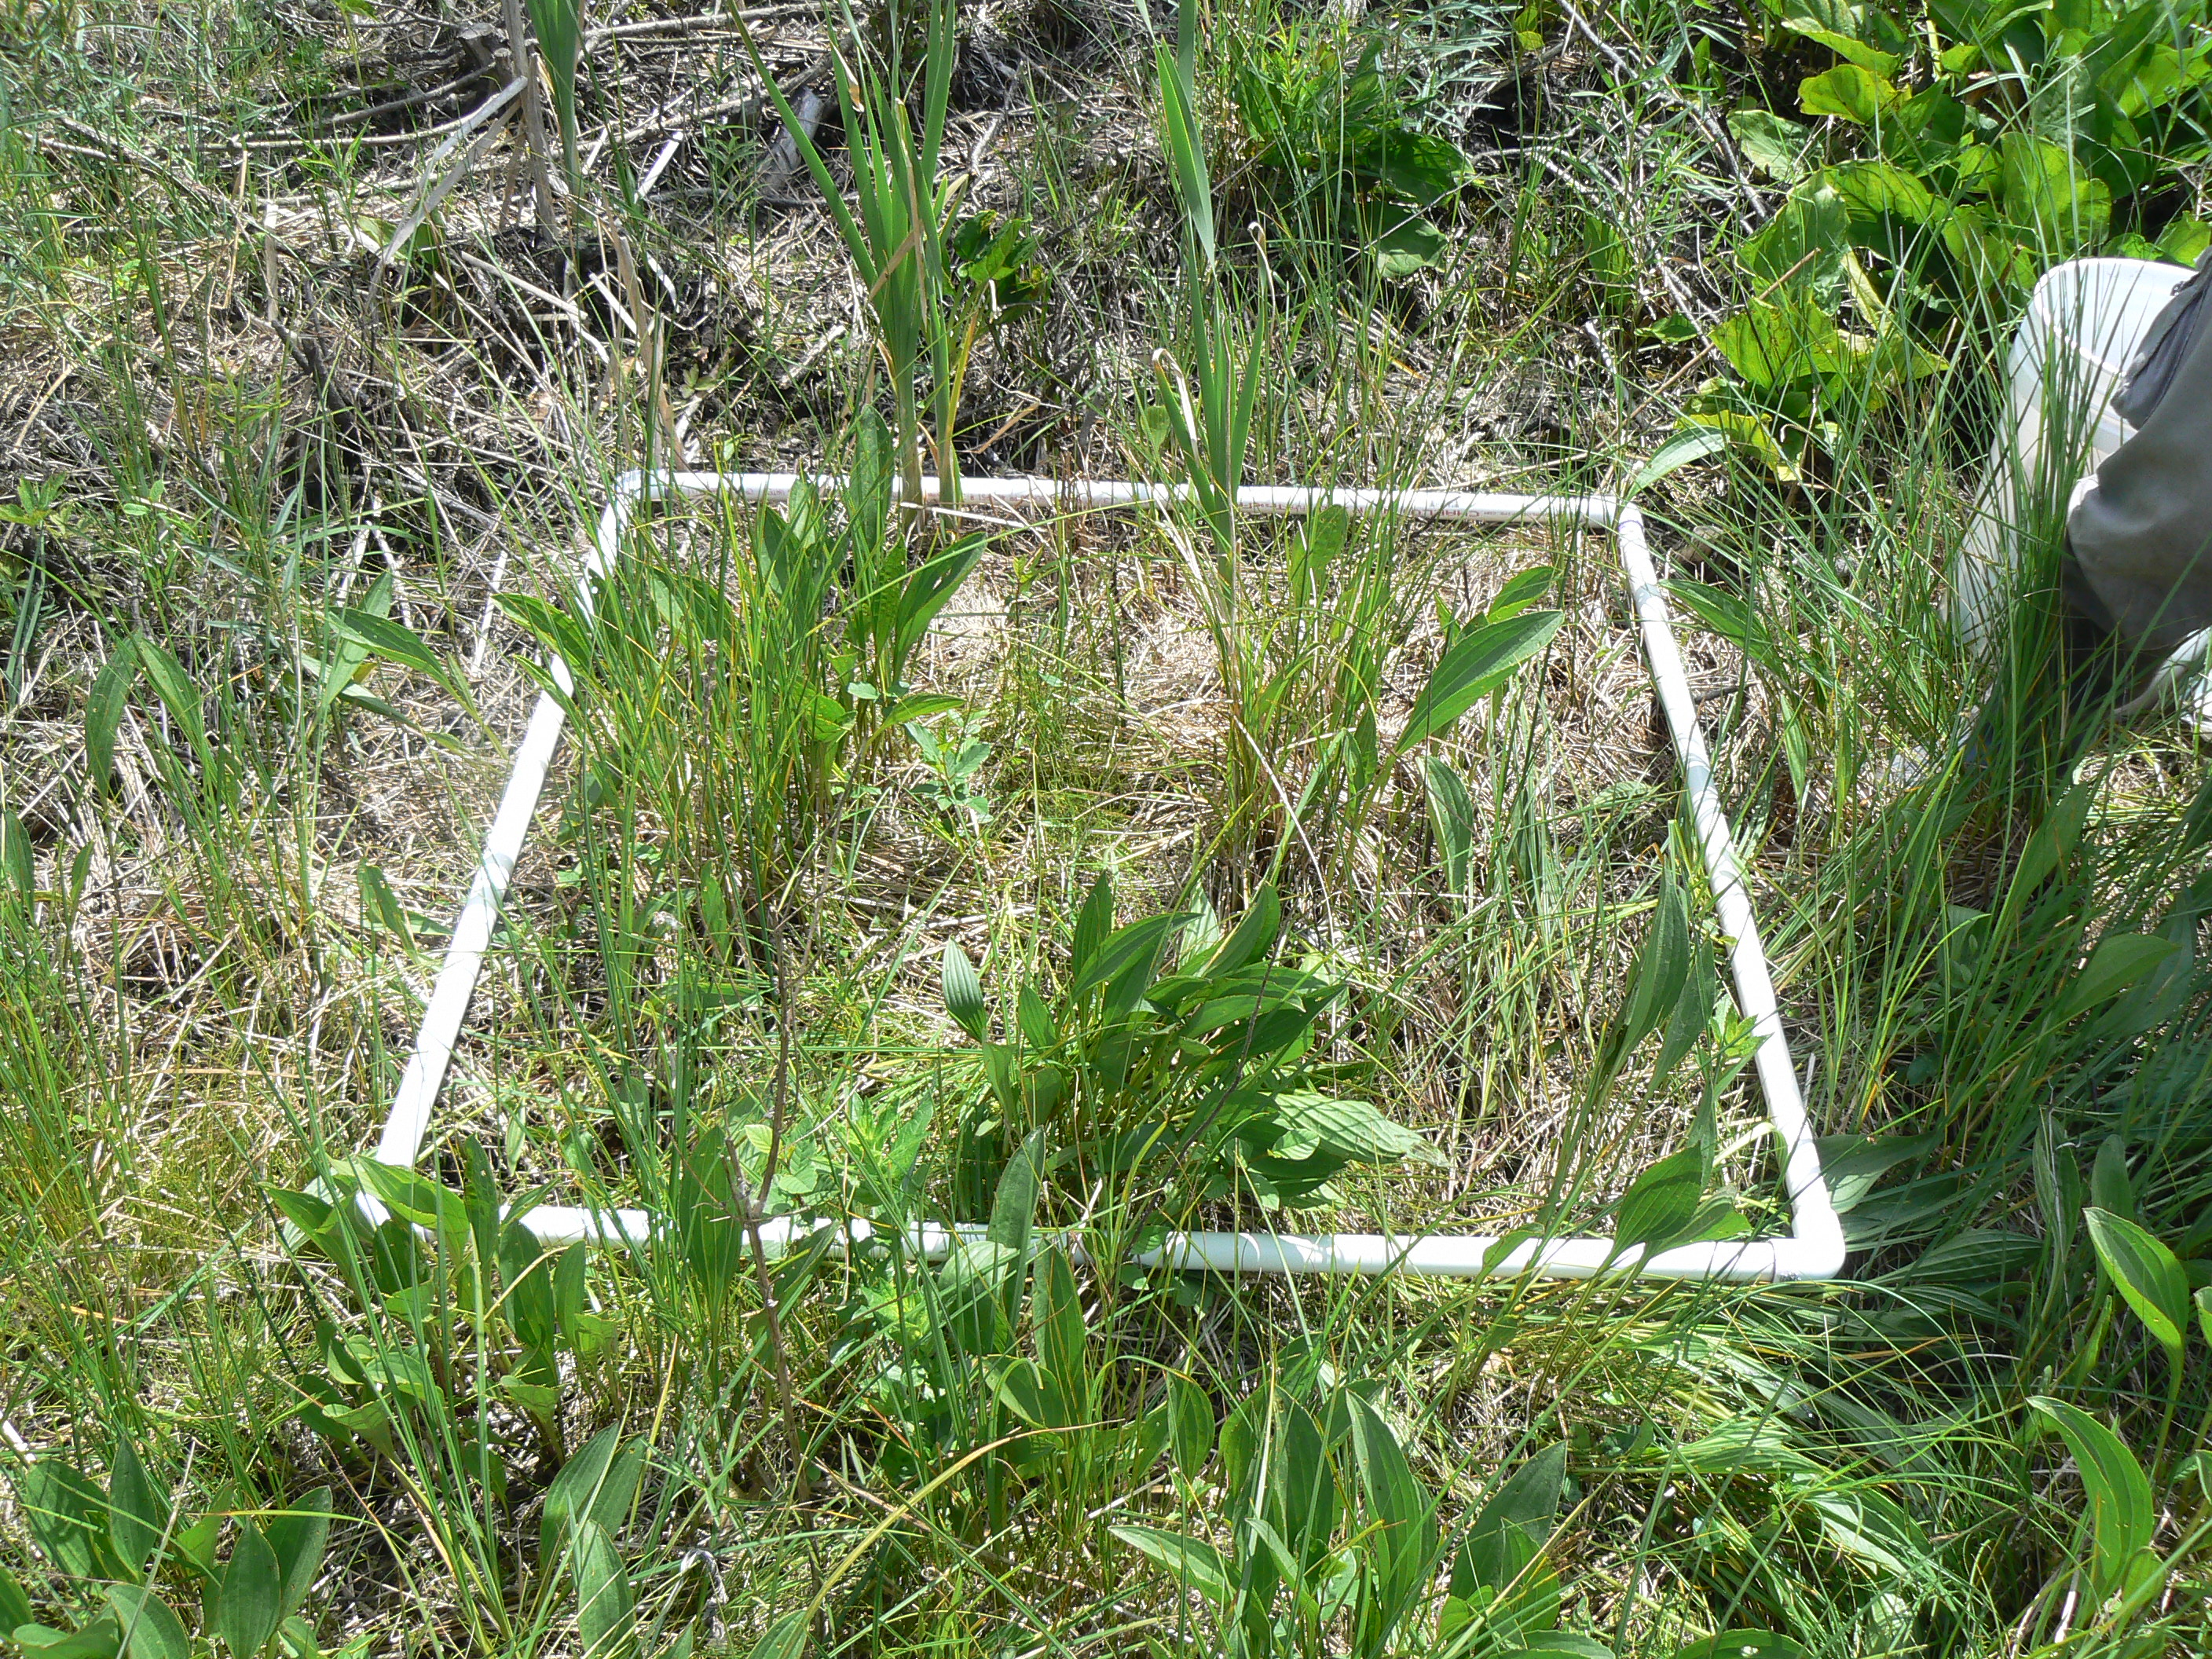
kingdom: Plantae
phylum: Tracheophyta
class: Liliopsida
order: Poales
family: Poaceae
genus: Deschampsia
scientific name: Deschampsia cespitosa
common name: Tufted hair-grass
